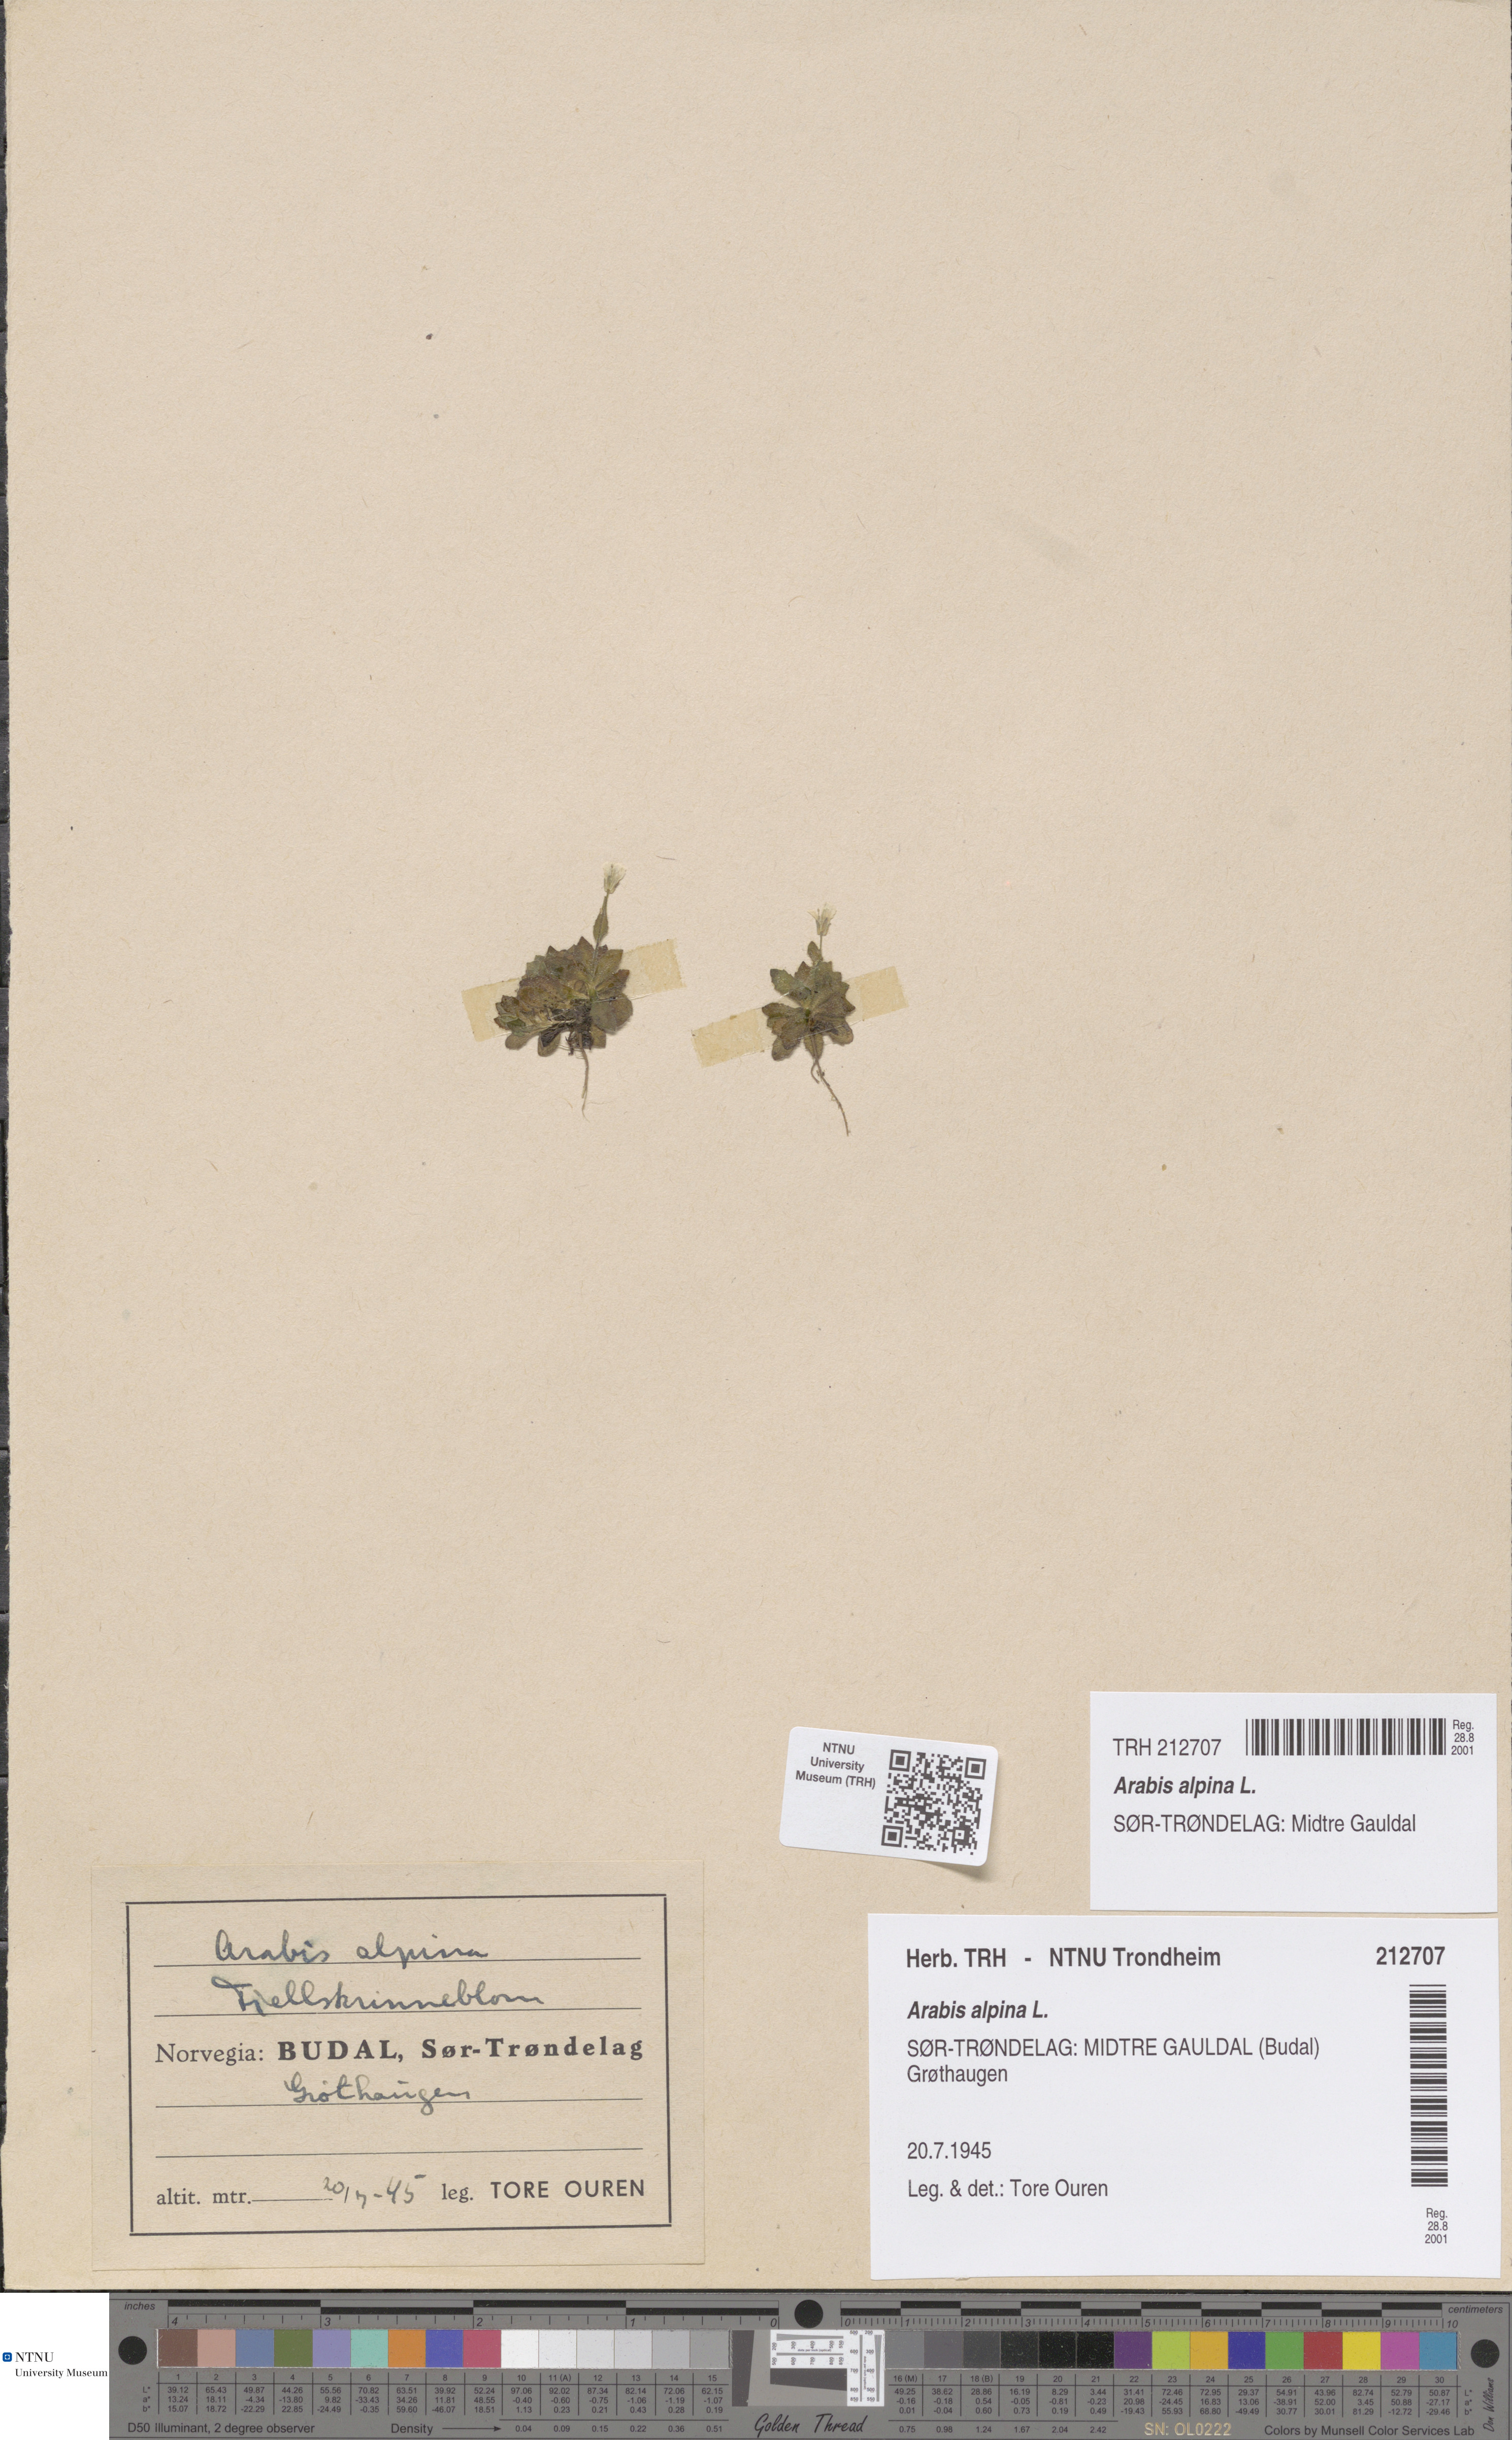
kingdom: Plantae
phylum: Tracheophyta
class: Magnoliopsida
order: Brassicales
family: Brassicaceae
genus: Arabis
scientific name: Arabis alpina
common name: Alpine rock-cress
